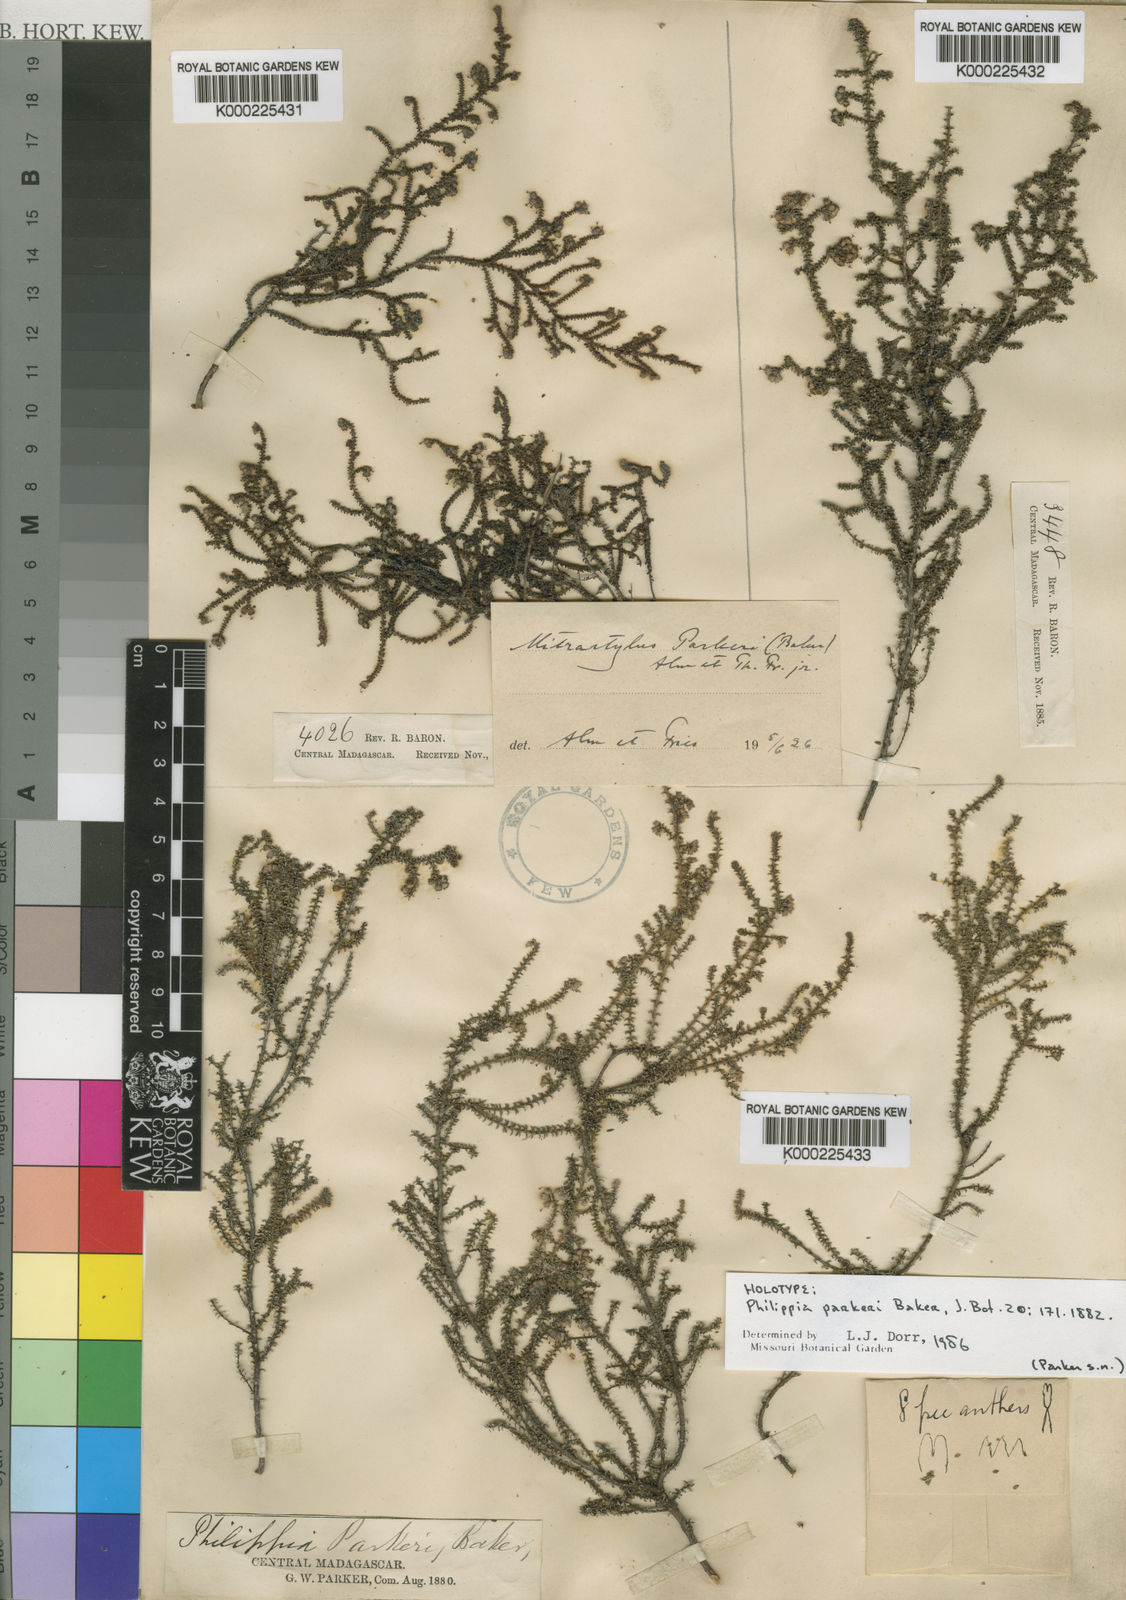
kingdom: Plantae
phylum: Tracheophyta
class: Magnoliopsida
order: Ericales
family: Ericaceae
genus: Erica
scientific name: Erica parkeri
